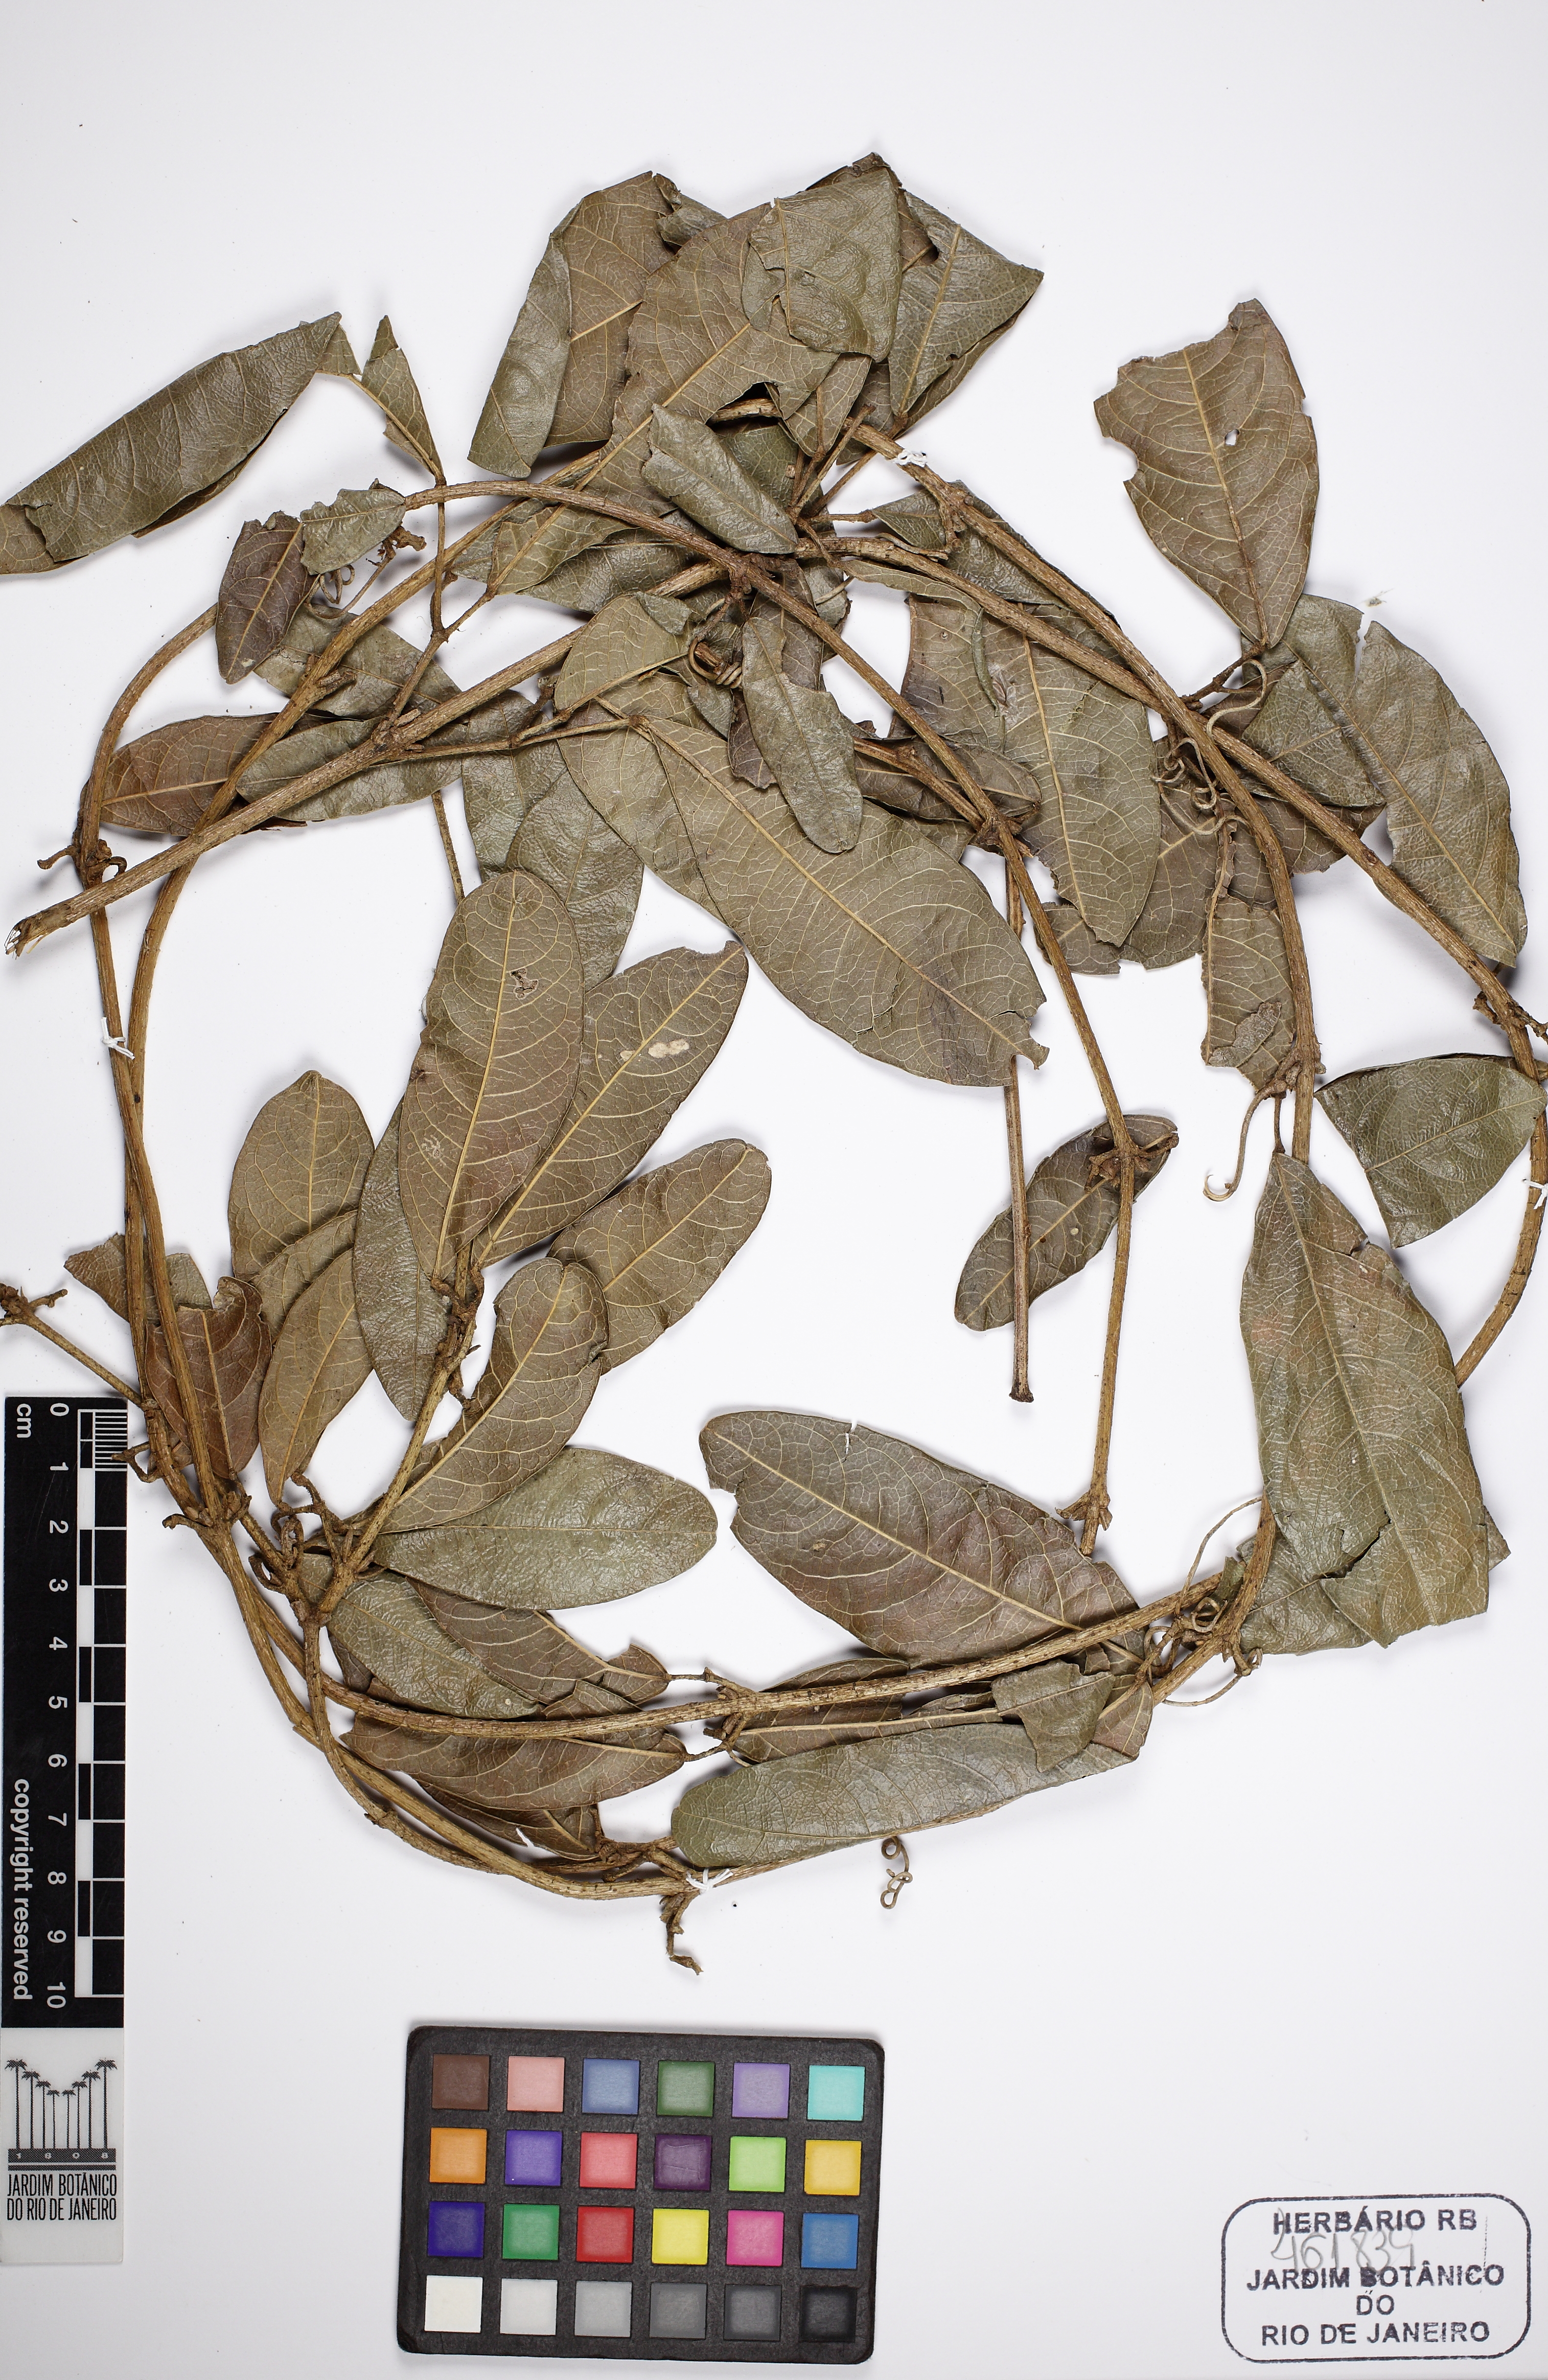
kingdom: Plantae
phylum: Tracheophyta
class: Magnoliopsida
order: Lamiales
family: Bignoniaceae
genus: Adenocalymma
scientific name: Adenocalymma scabriusculum
